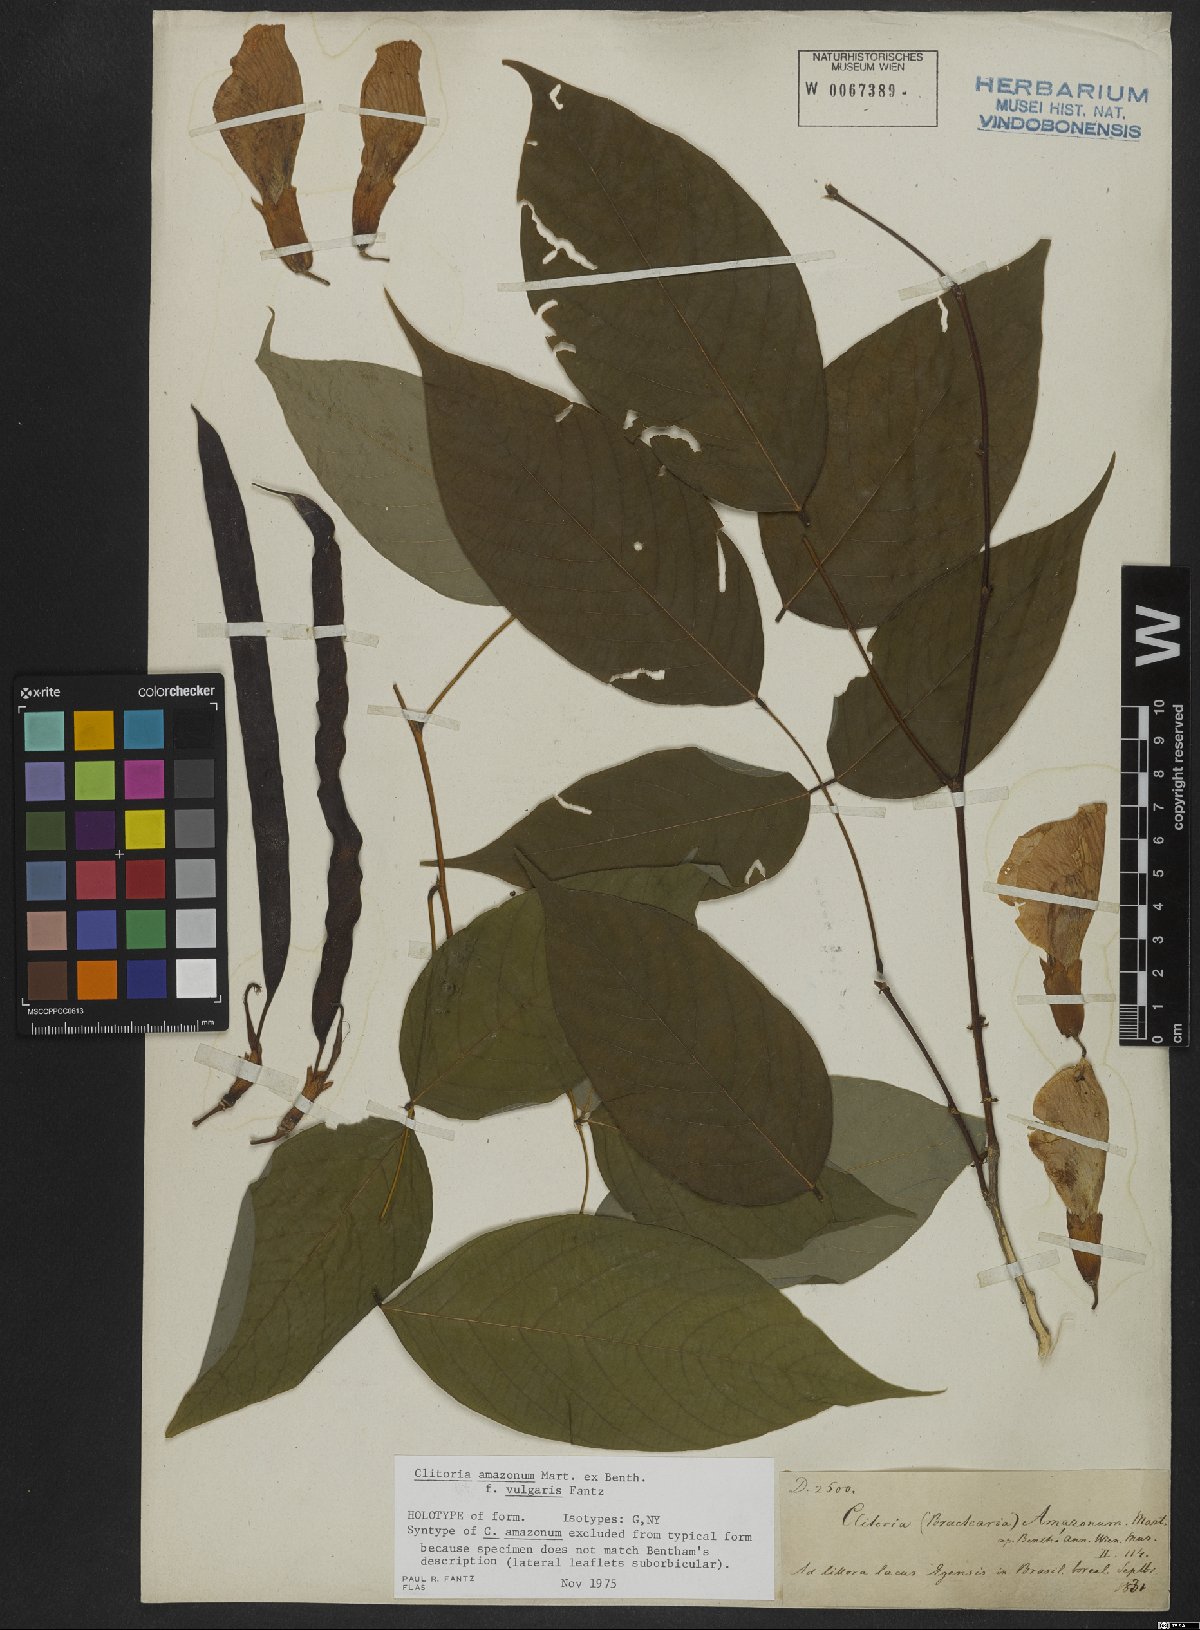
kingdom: Plantae
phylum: Tracheophyta
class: Magnoliopsida
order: Fabales
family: Fabaceae
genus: Clitoria
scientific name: Clitoria amazonum
